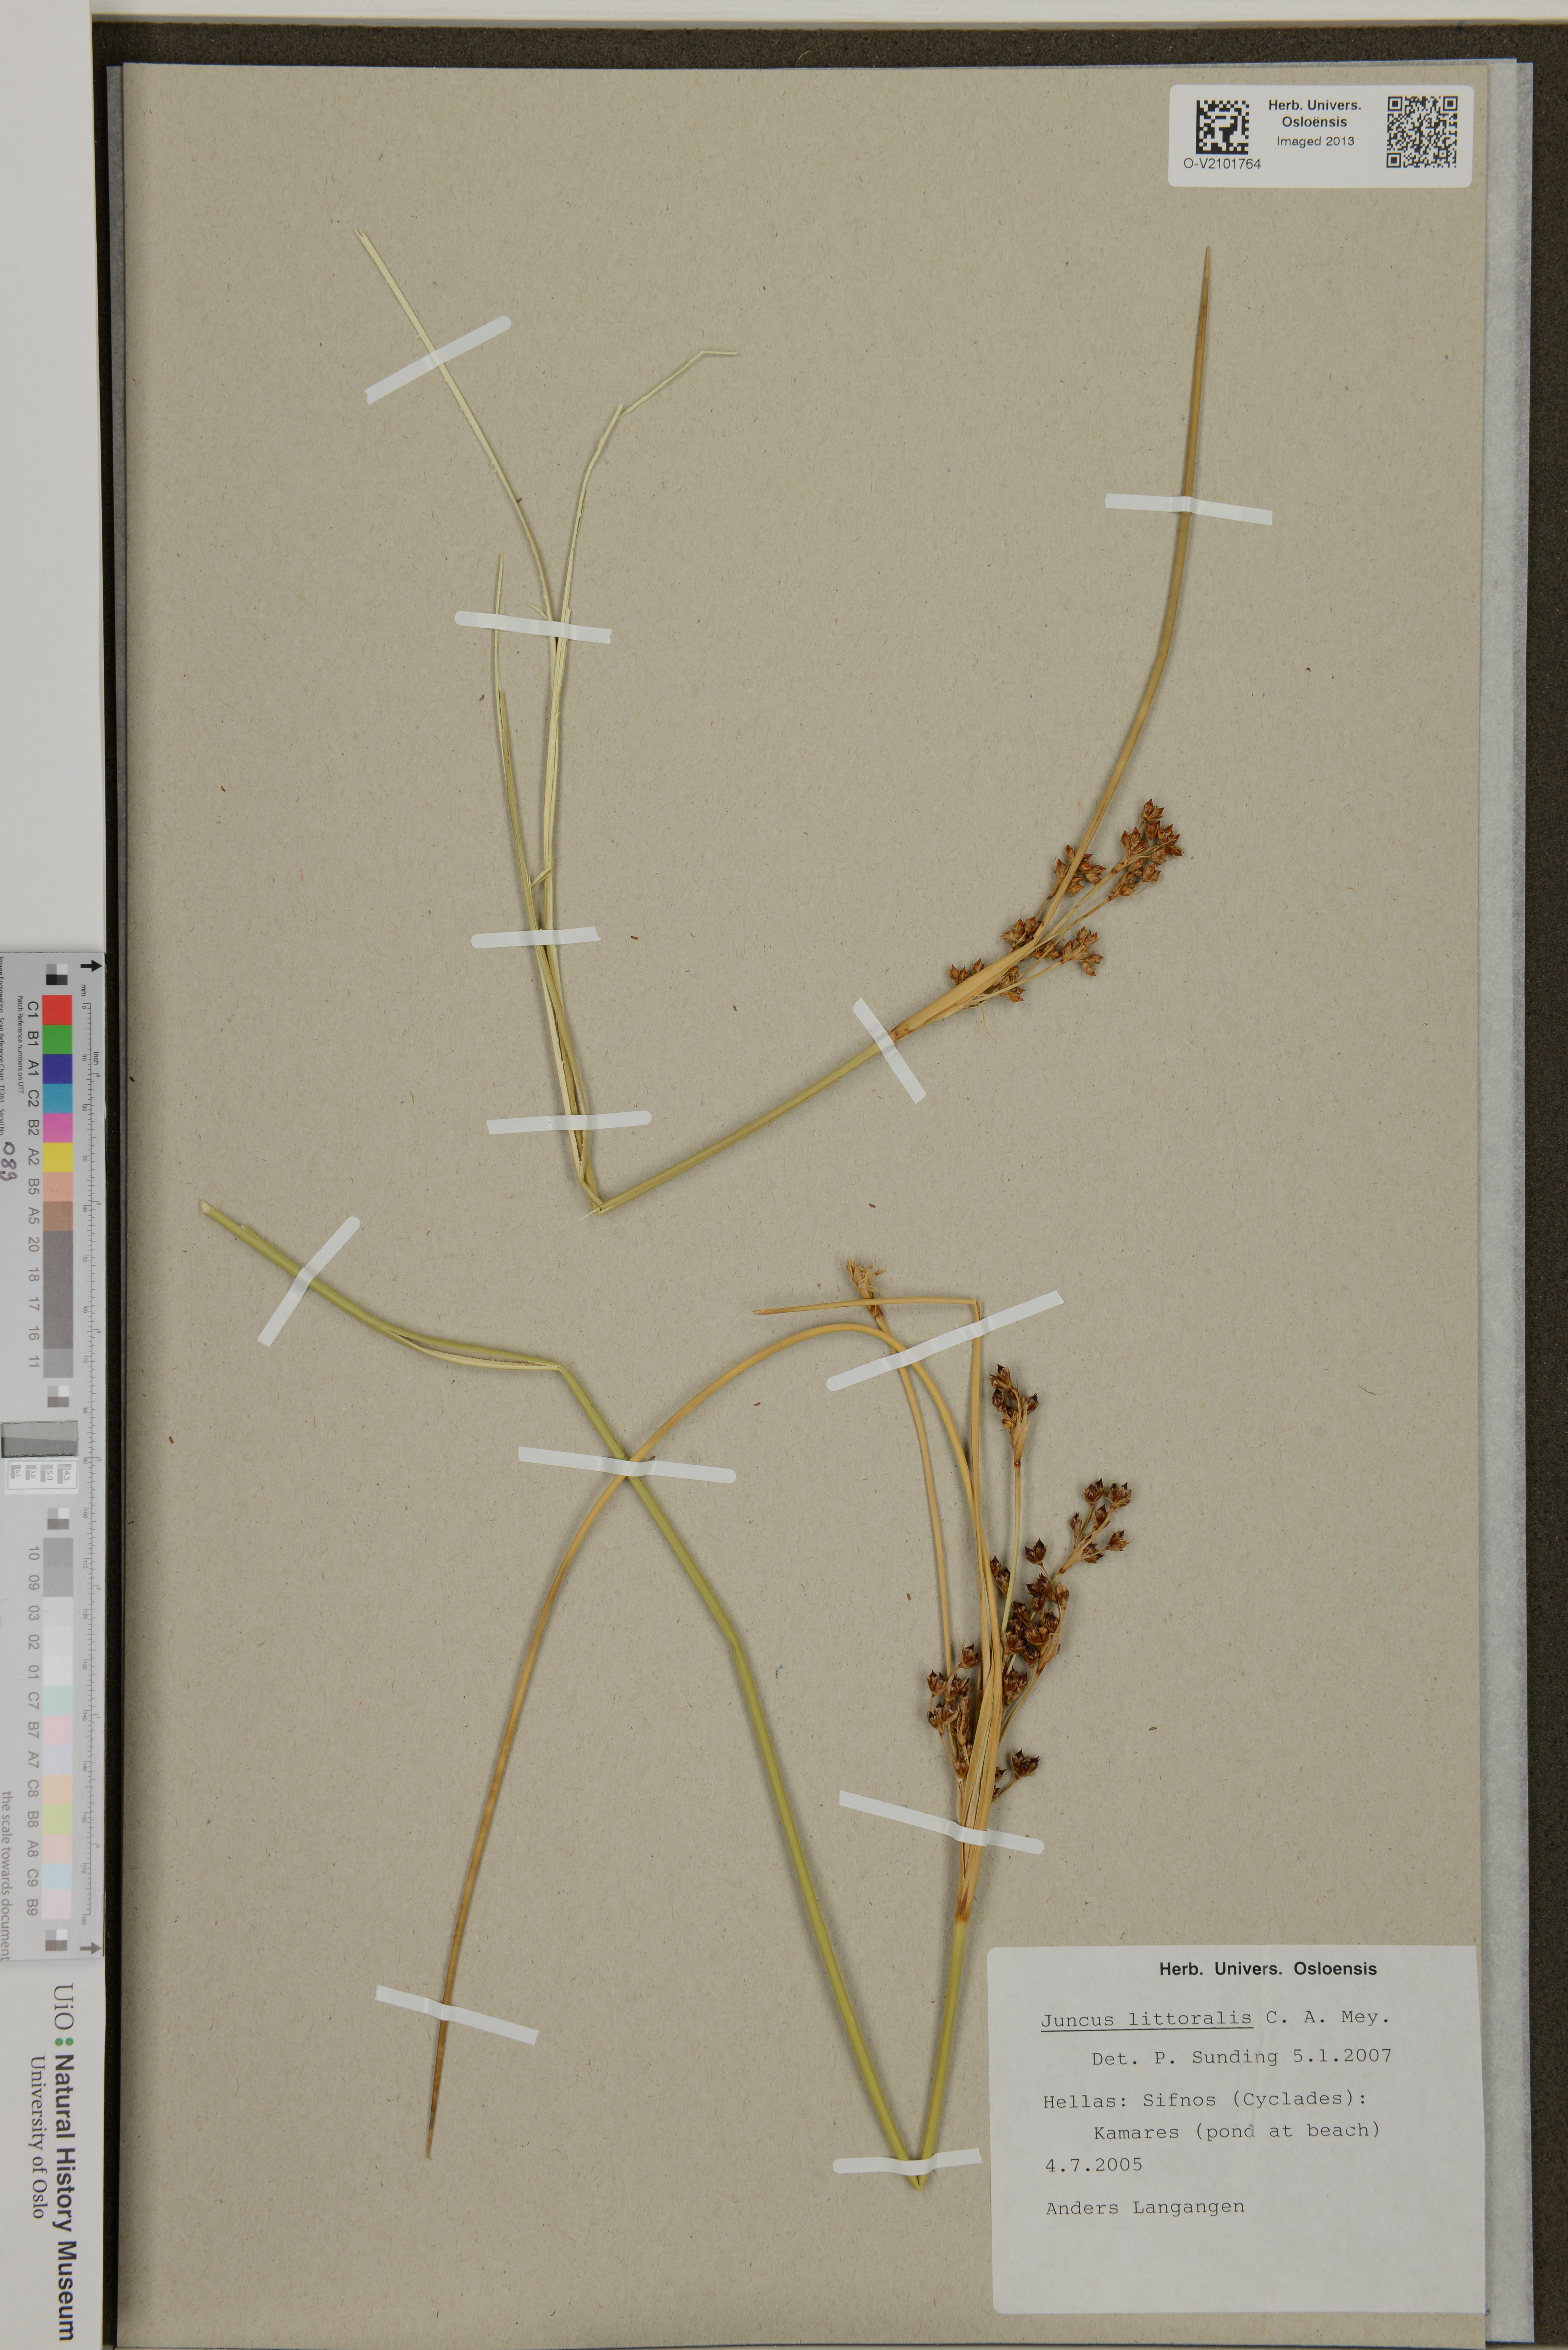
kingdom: Plantae
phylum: Tracheophyta
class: Liliopsida
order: Poales
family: Juncaceae
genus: Juncus
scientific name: Juncus littoralis
